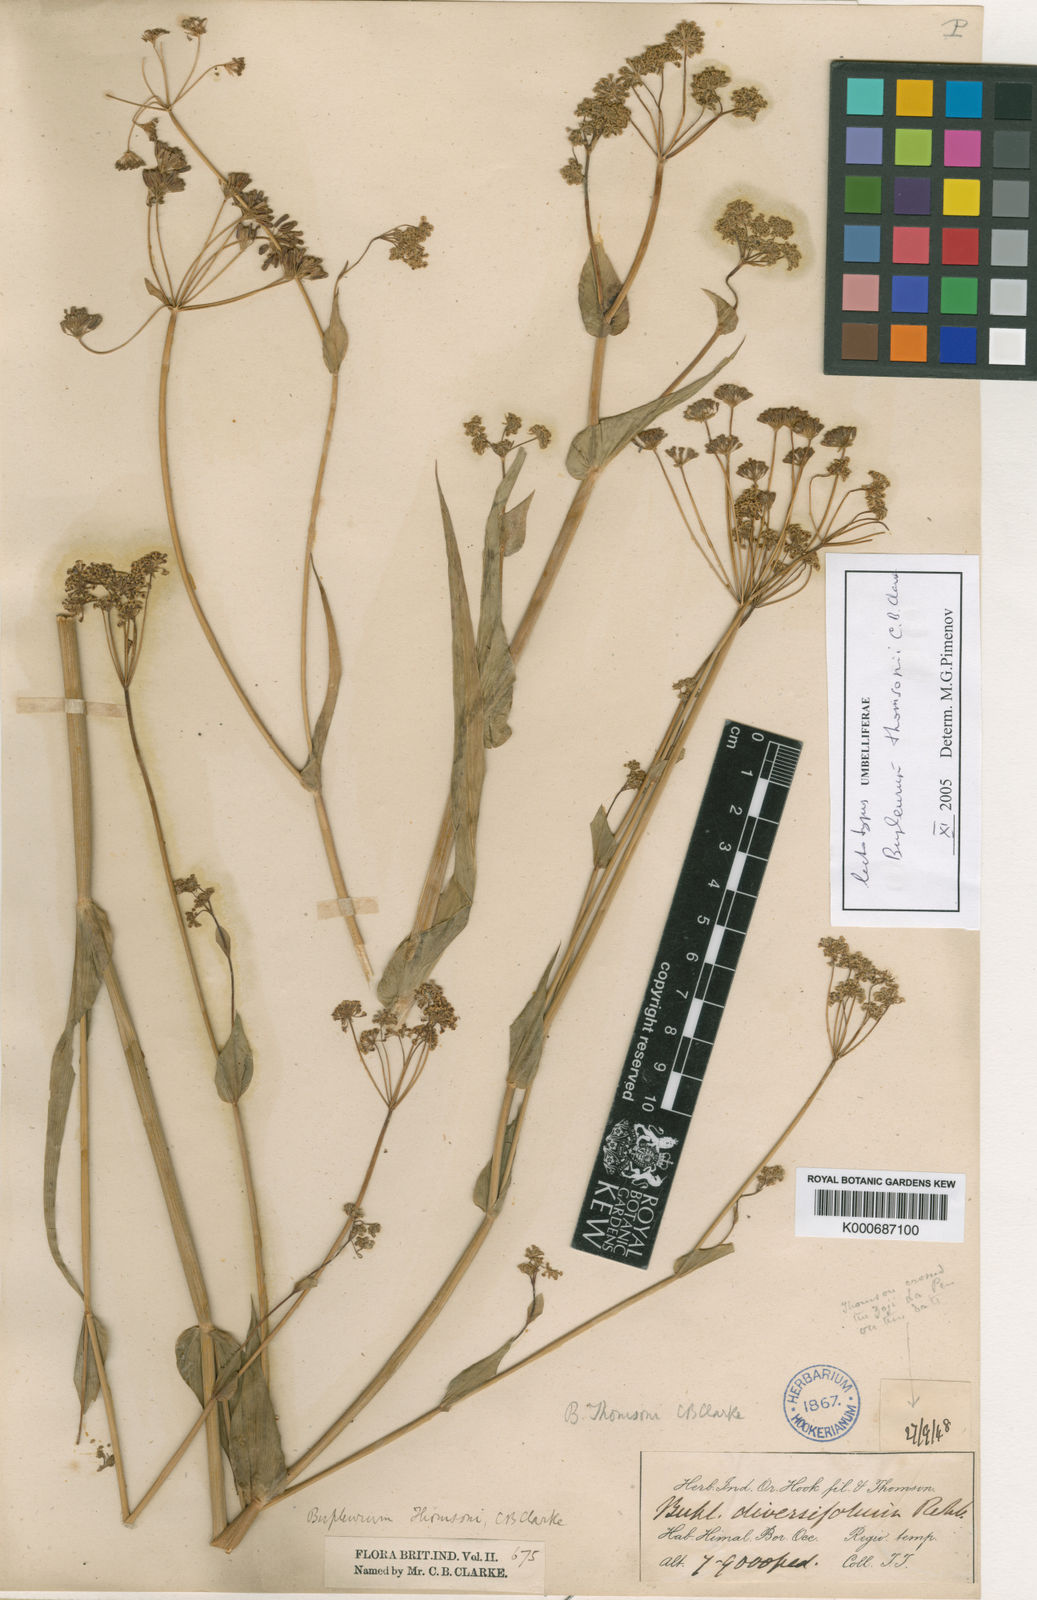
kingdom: Plantae
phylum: Tracheophyta
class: Magnoliopsida
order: Apiales
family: Apiaceae
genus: Bupleurum
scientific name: Bupleurum candollei
